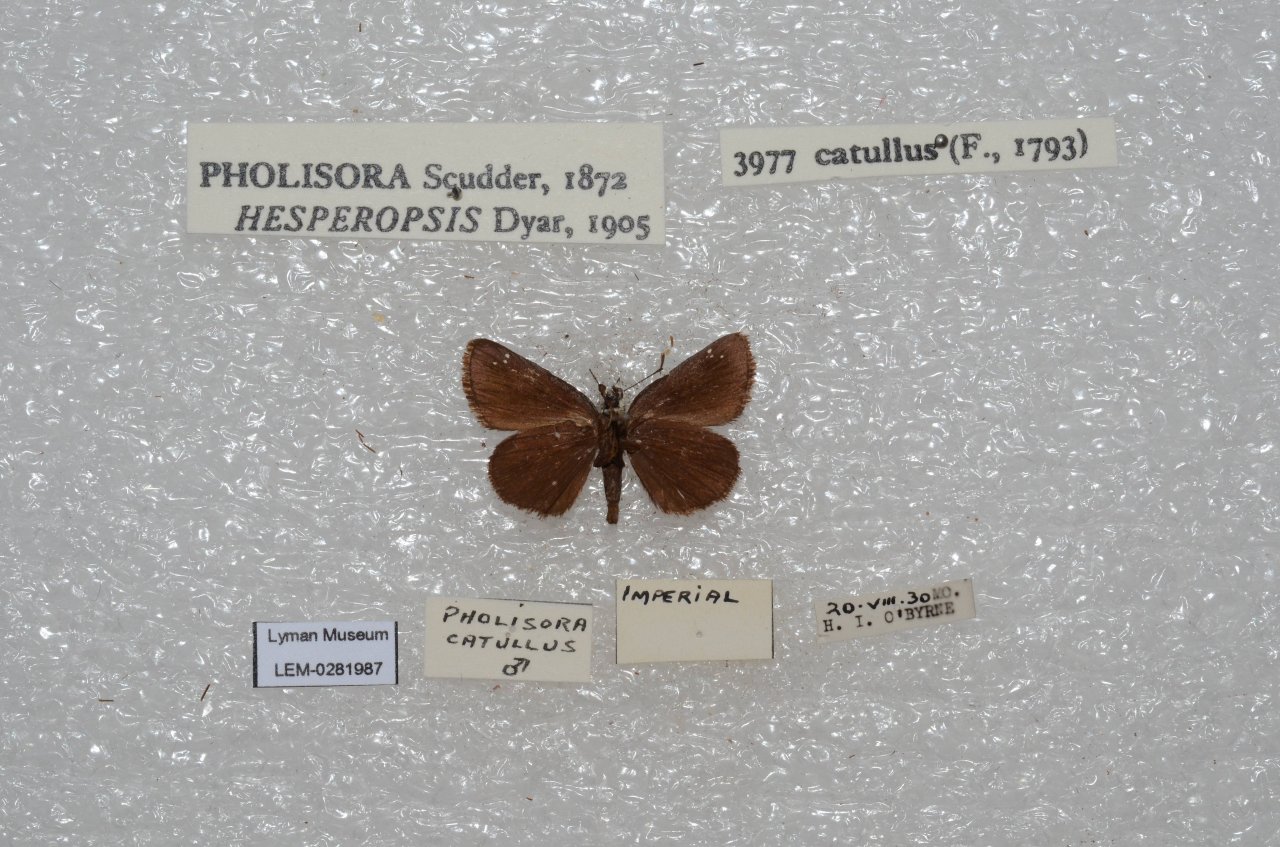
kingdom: Animalia
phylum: Arthropoda
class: Insecta
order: Lepidoptera
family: Hesperiidae
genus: Pholisora
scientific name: Pholisora catullus
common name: Common Sootywing
